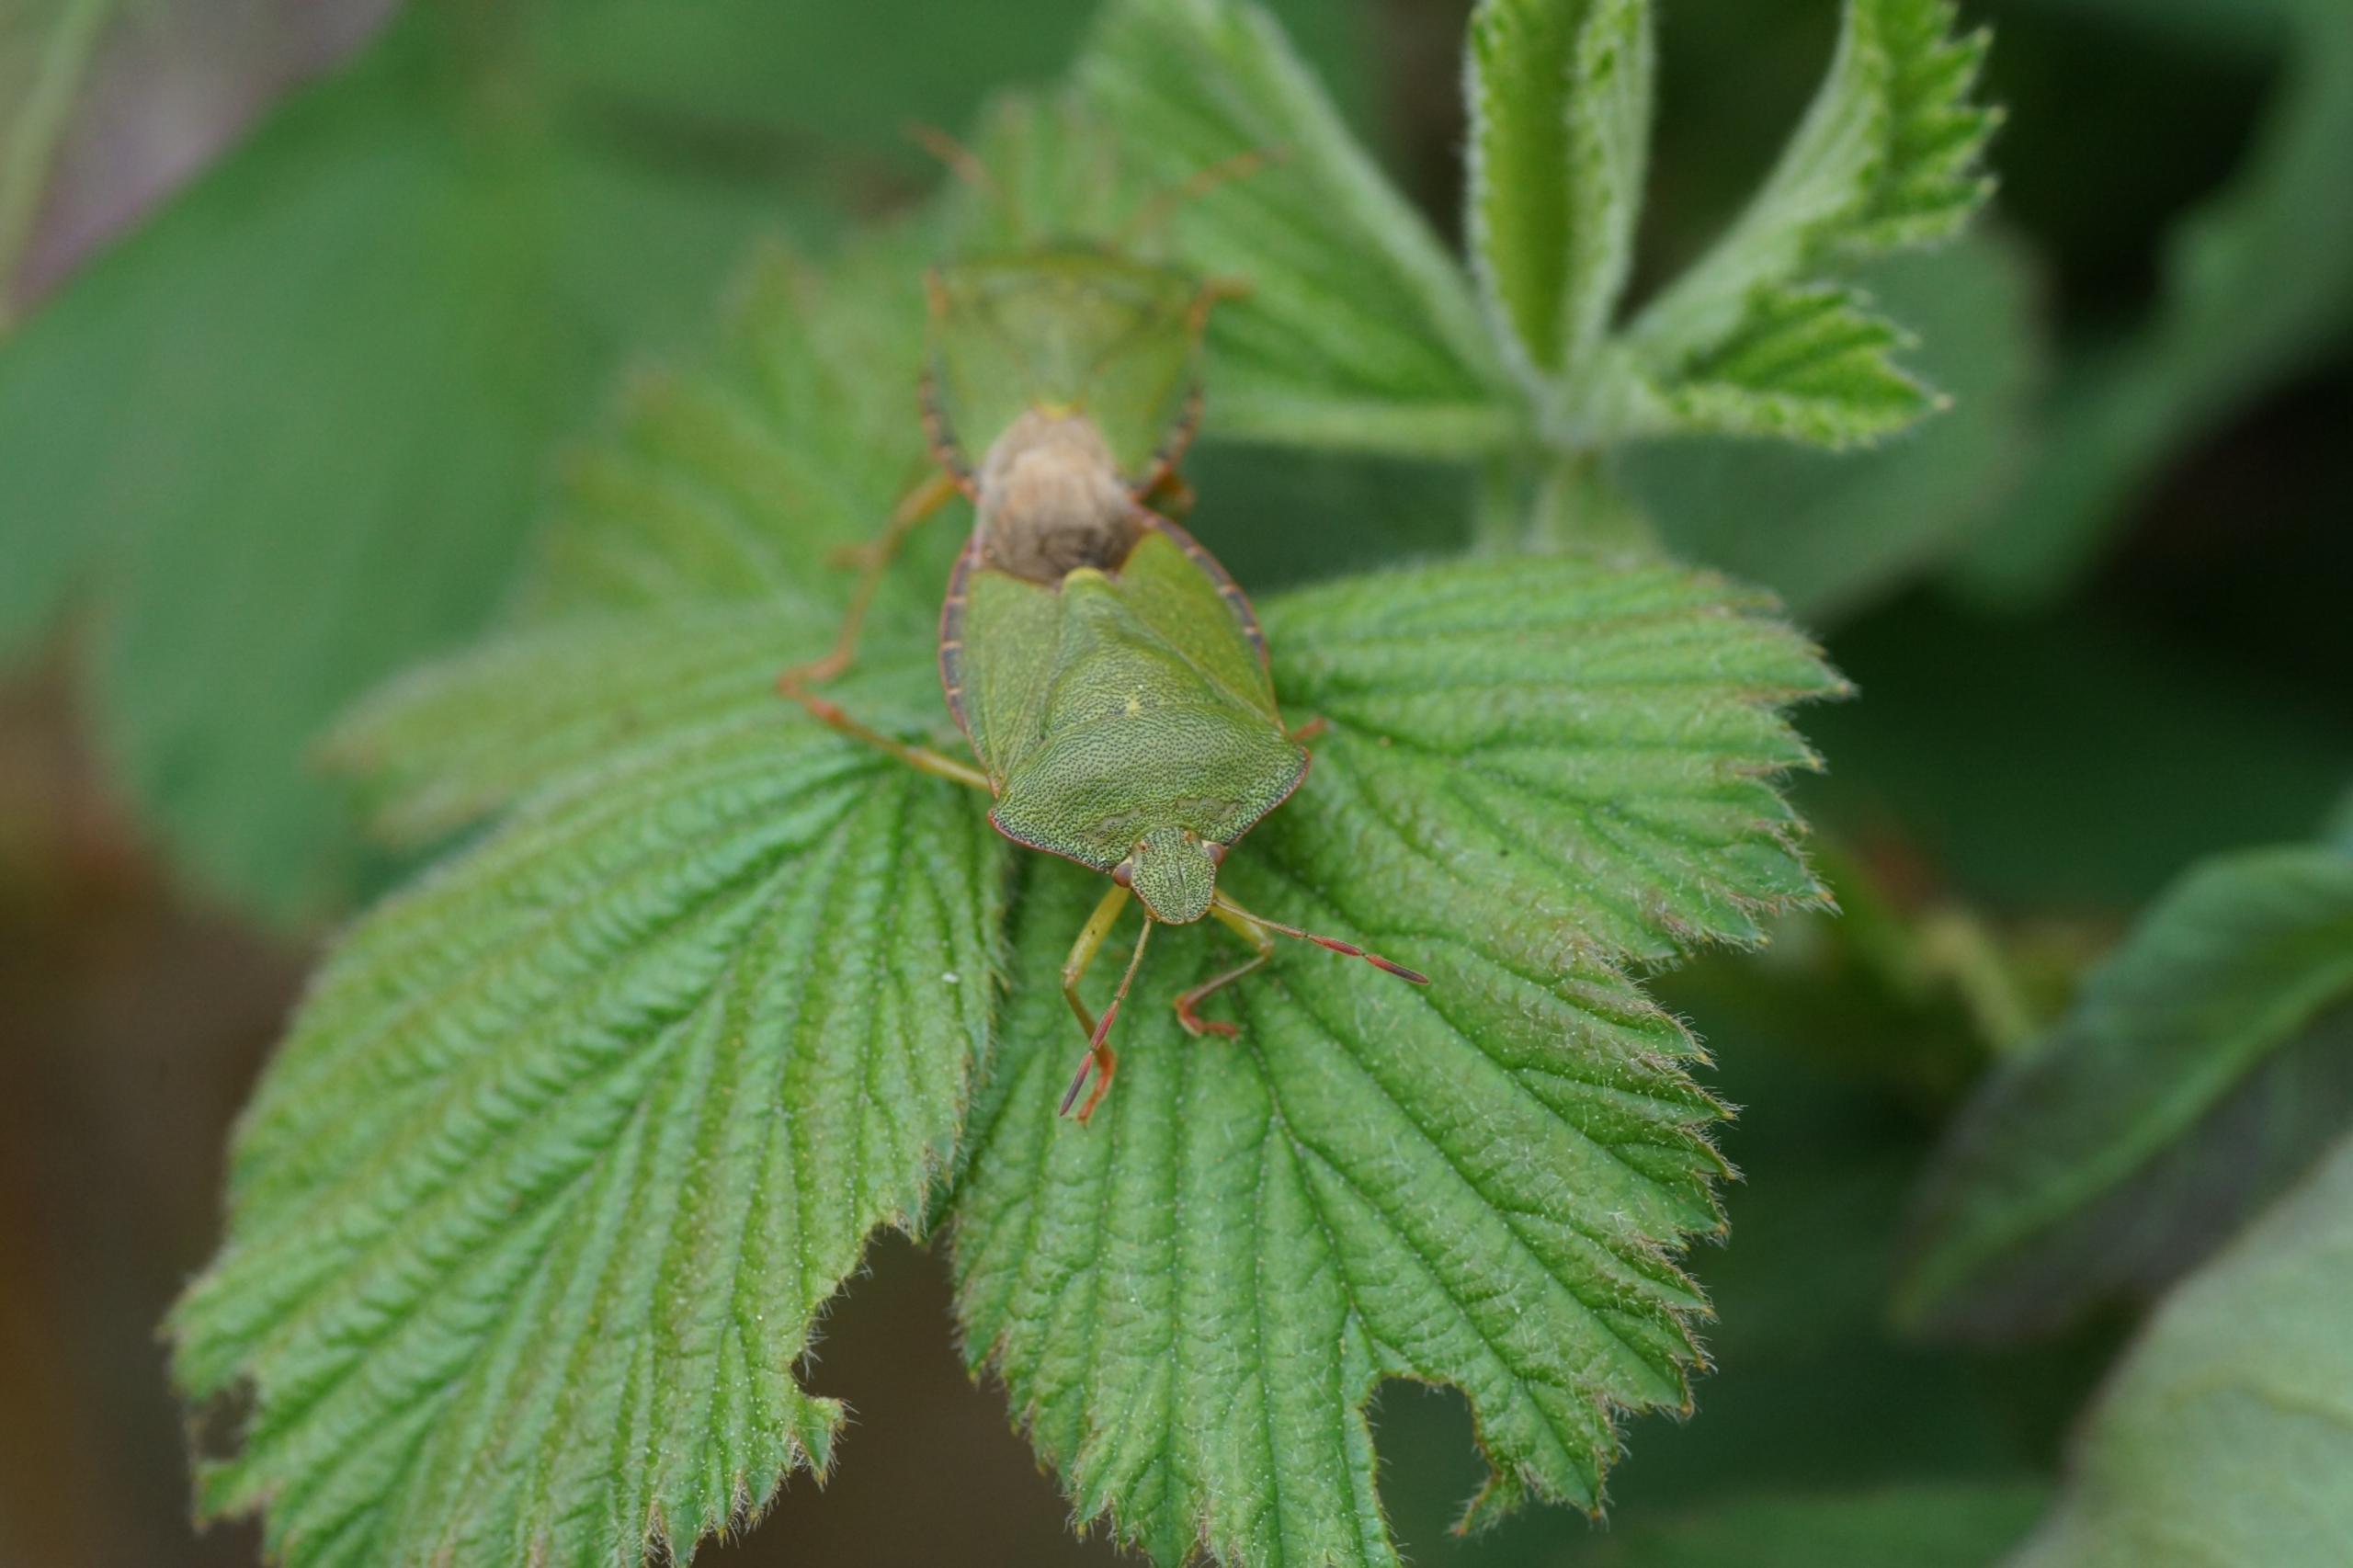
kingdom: Animalia
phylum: Arthropoda
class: Insecta
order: Hemiptera
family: Pentatomidae
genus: Palomena
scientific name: Palomena prasina
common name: Grøn bredtæge
